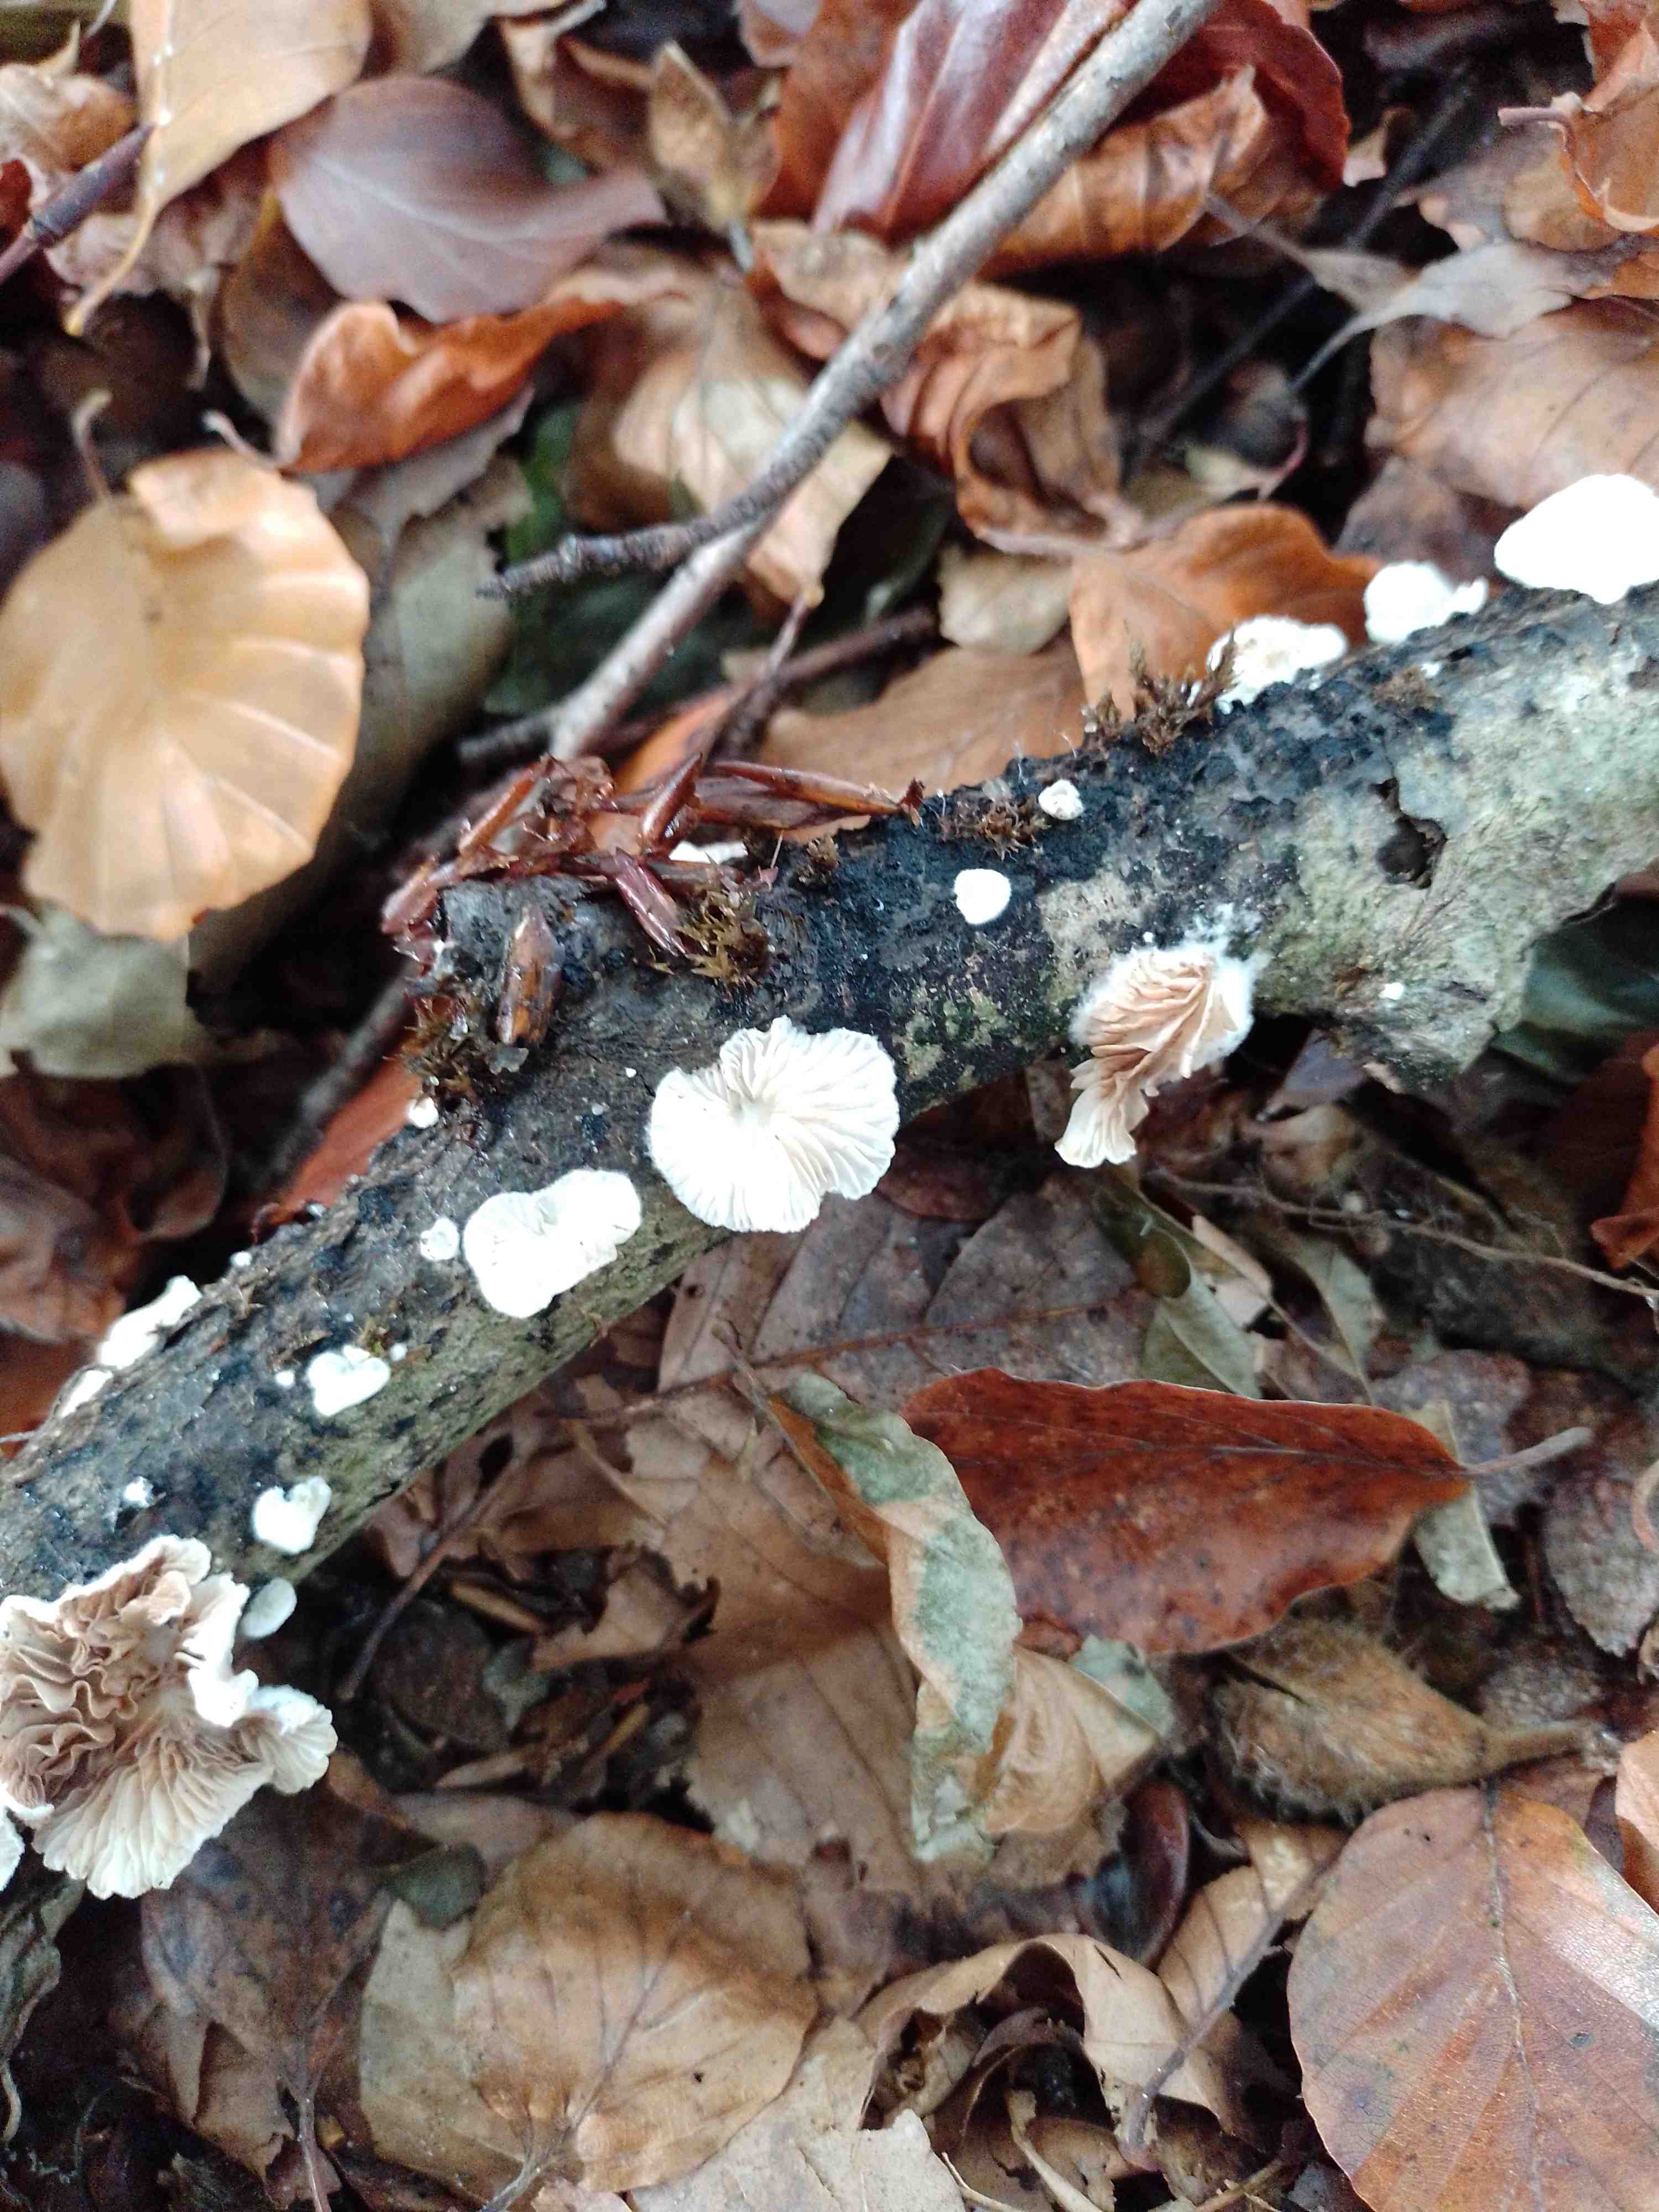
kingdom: Fungi
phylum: Basidiomycota
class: Agaricomycetes
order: Agaricales
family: Crepidotaceae
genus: Crepidotus
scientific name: Crepidotus cesatii
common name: almindelig muslingesvamp
